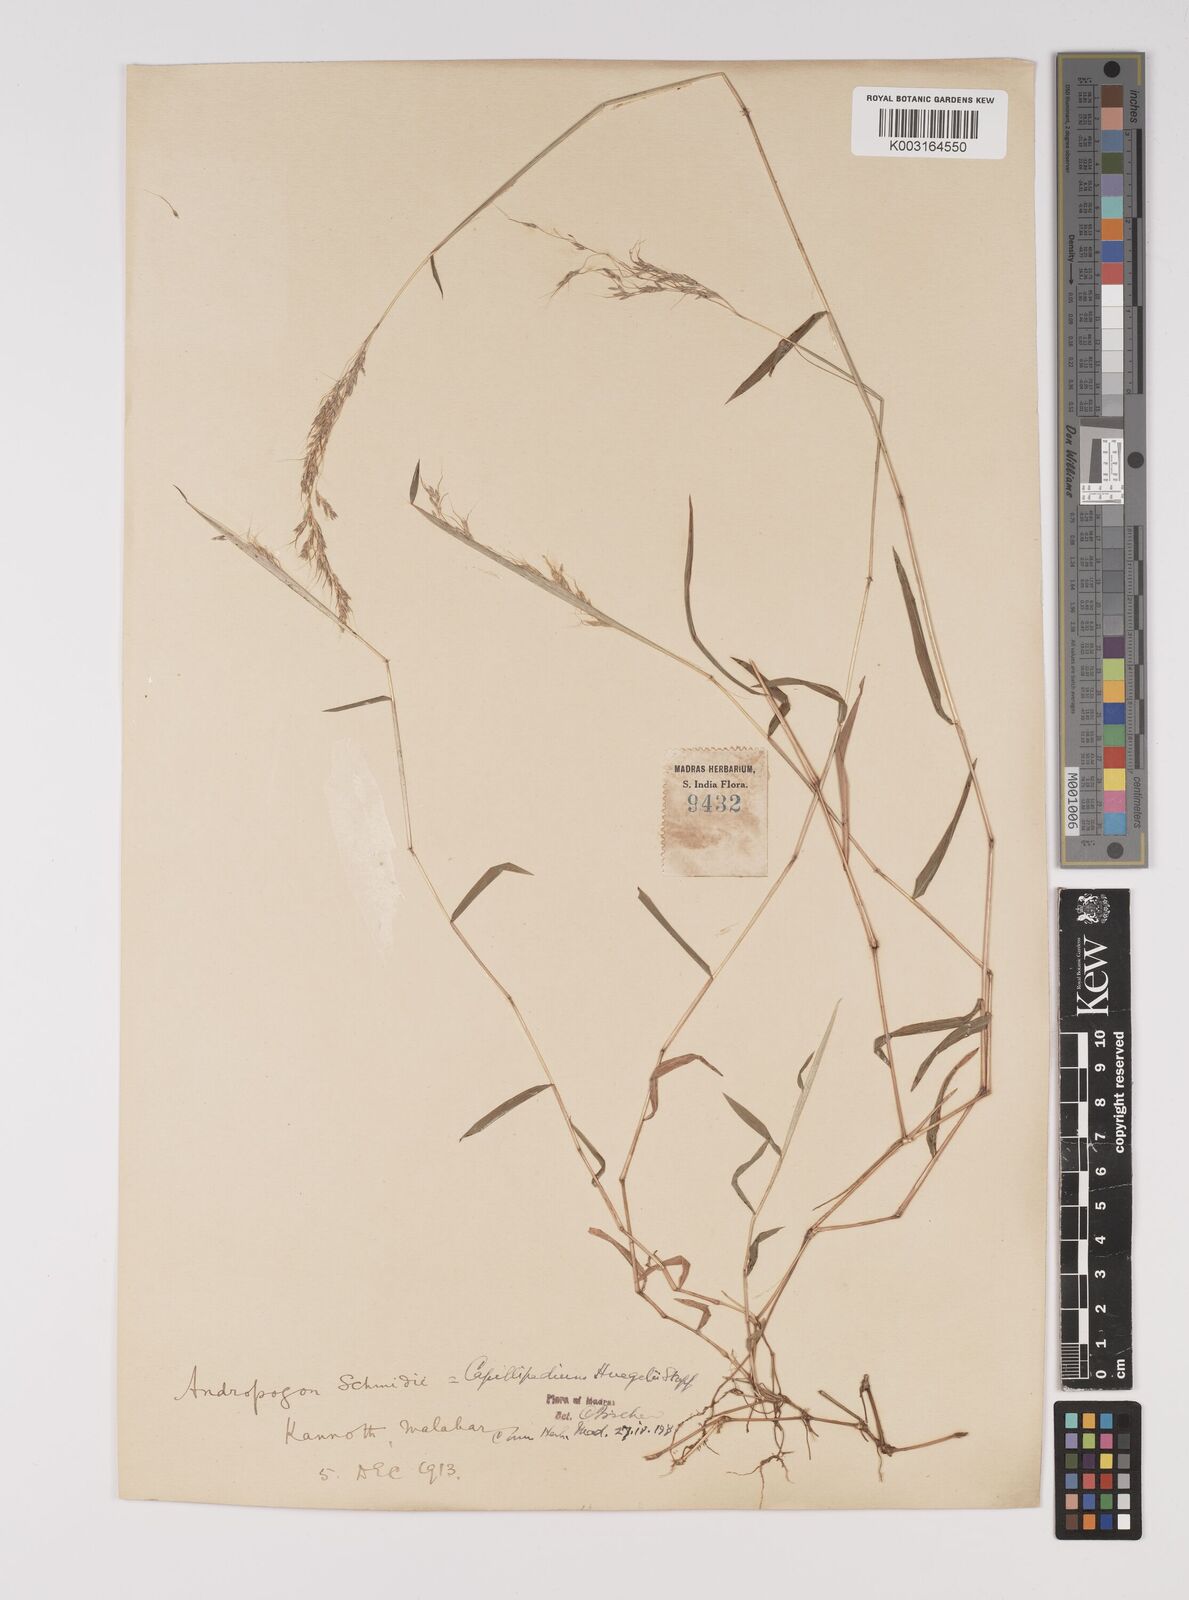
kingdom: Plantae
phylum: Tracheophyta
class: Liliopsida
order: Poales
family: Poaceae
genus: Capillipedium
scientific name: Capillipedium huegelii
